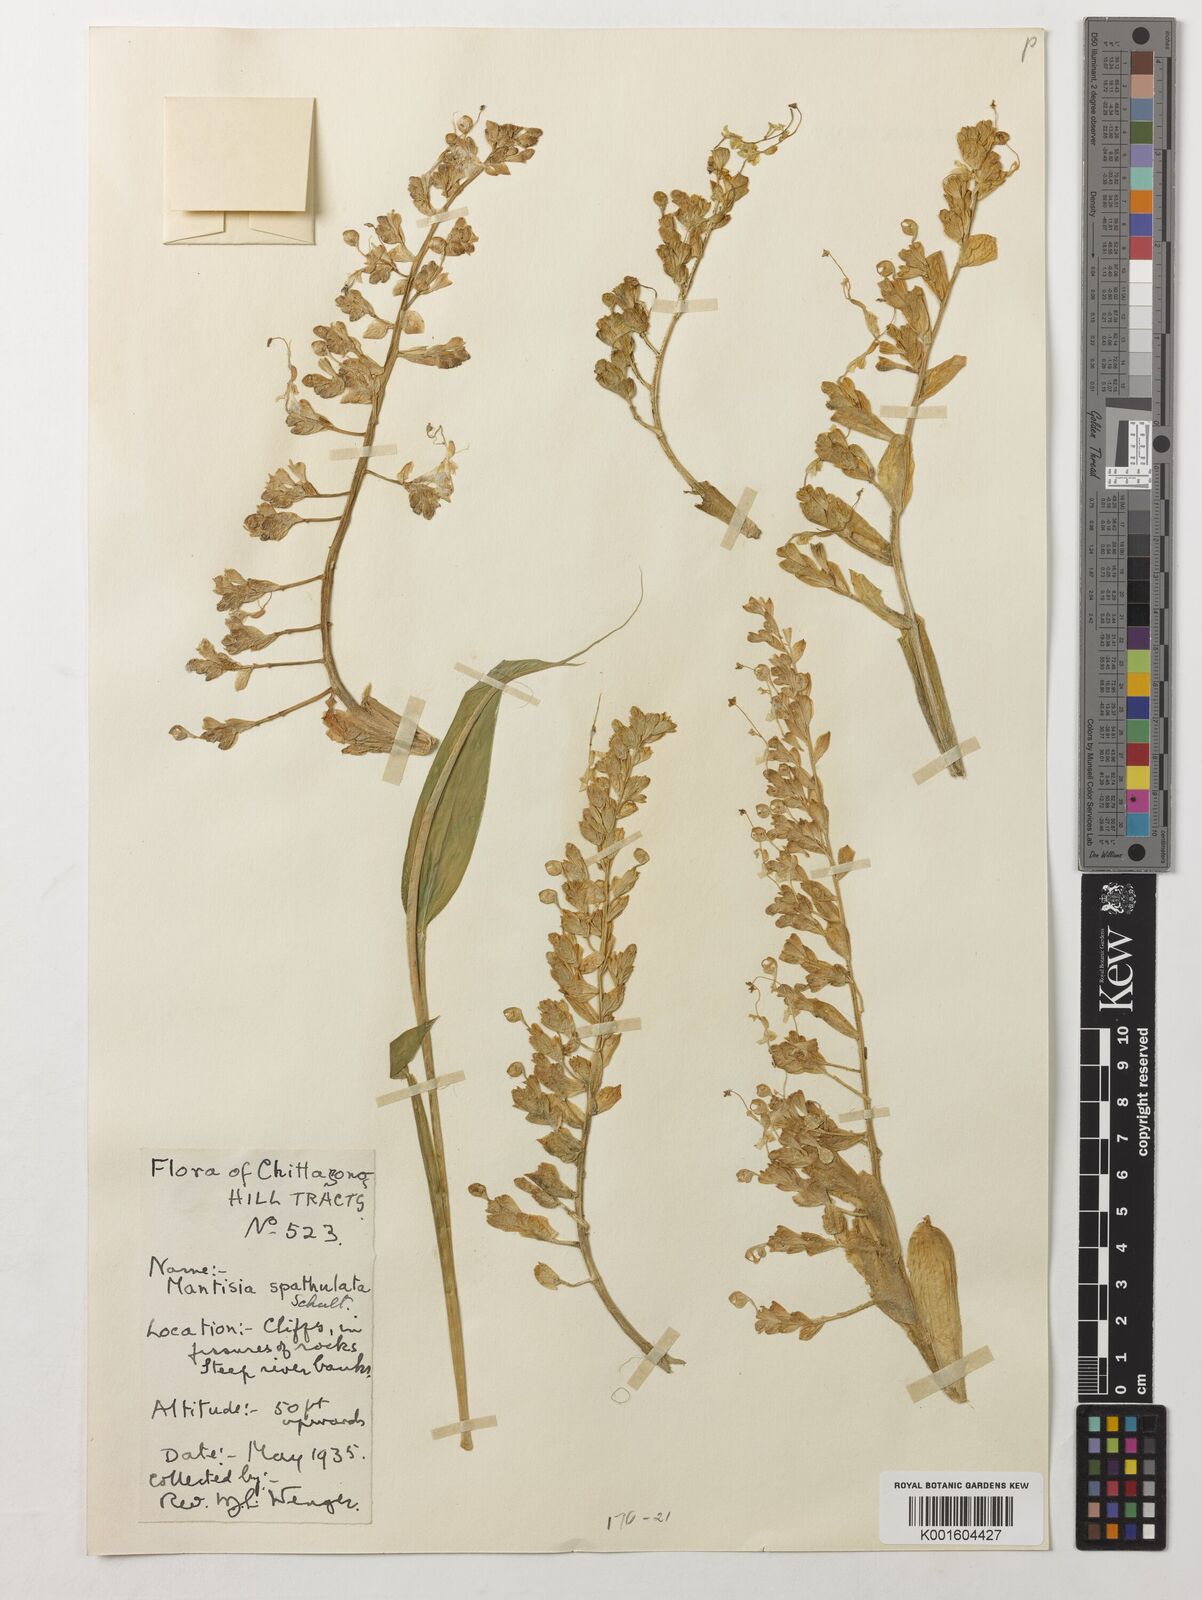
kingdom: Plantae
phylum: Tracheophyta
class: Liliopsida
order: Zingiberales
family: Zingiberaceae
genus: Globba
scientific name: Globba spathulata
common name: Dancing girl flower
